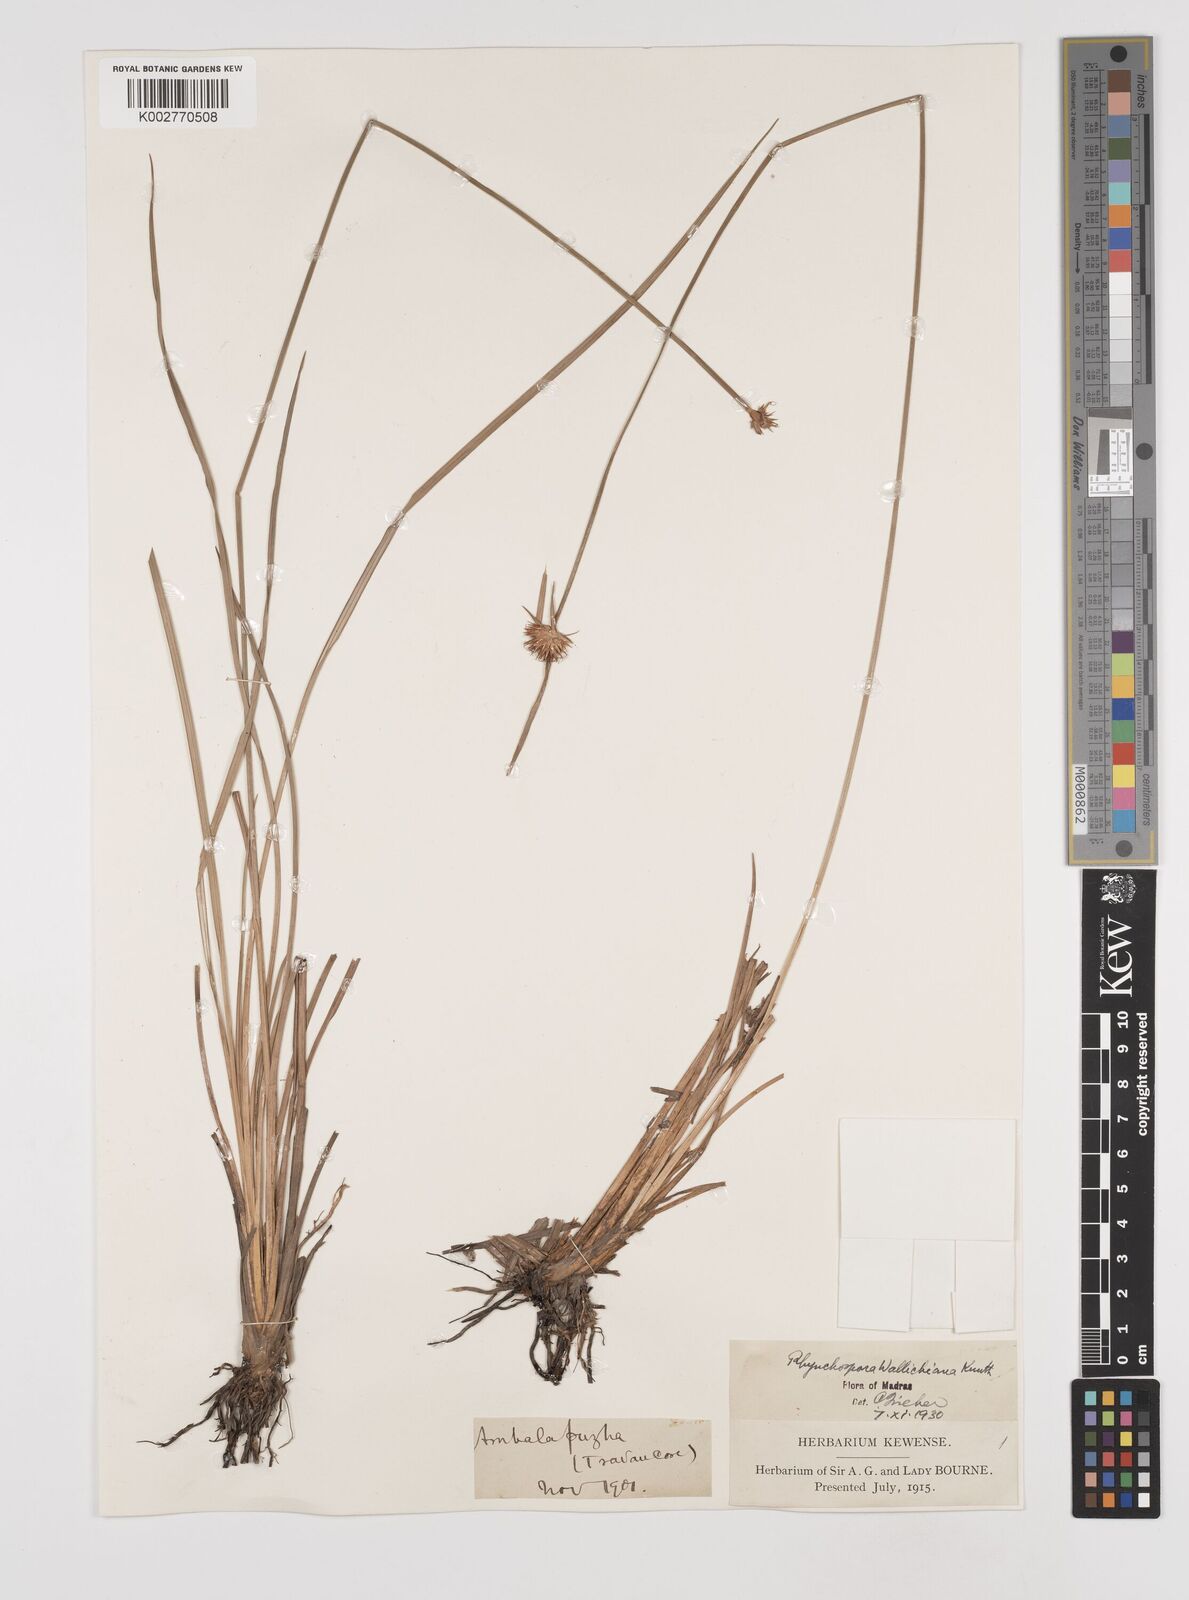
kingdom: Plantae
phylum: Tracheophyta
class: Liliopsida
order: Poales
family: Cyperaceae
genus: Rhynchospora
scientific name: Rhynchospora rubra
